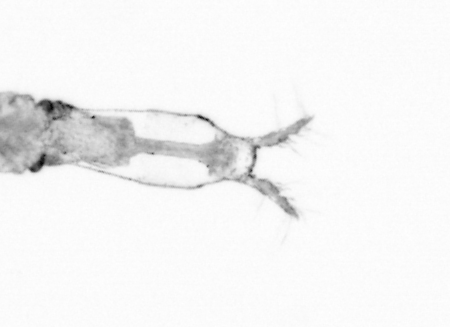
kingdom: Animalia
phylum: Arthropoda
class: Copepoda
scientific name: Copepoda
